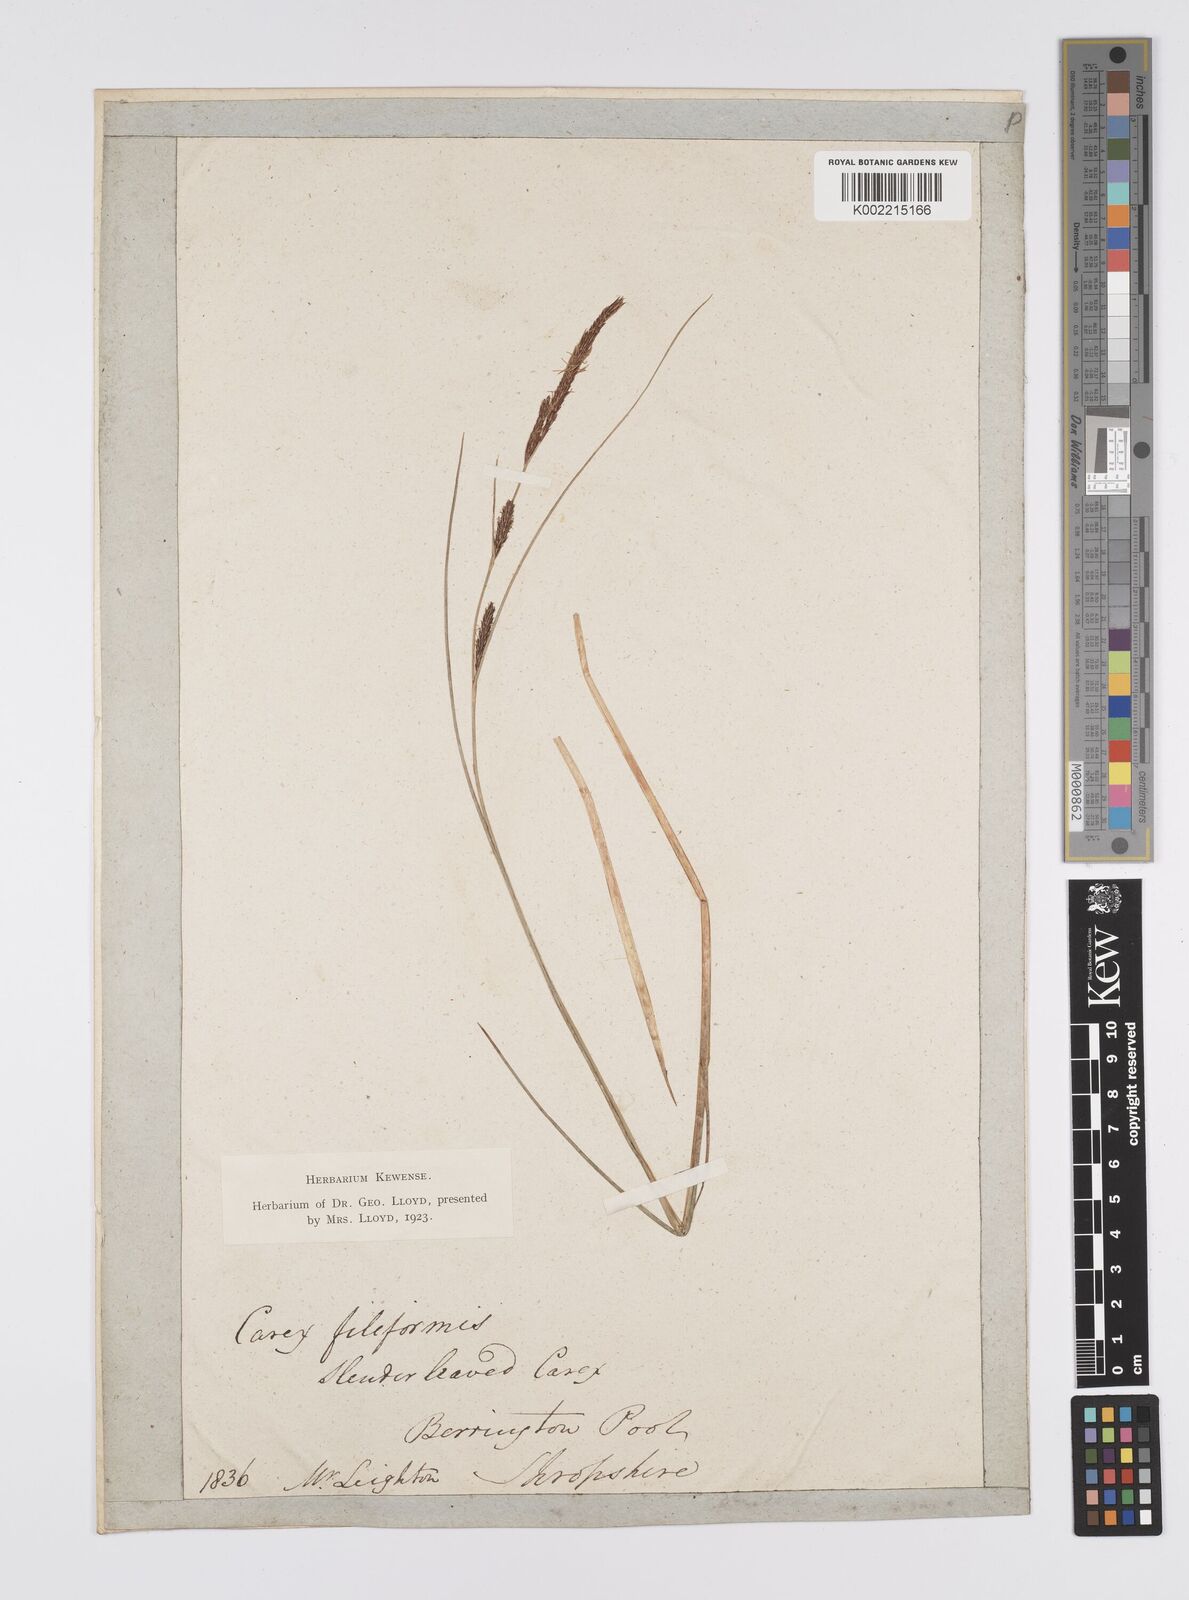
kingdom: Plantae
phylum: Tracheophyta
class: Liliopsida
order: Poales
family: Cyperaceae
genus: Carex
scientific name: Carex lasiocarpa
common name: Slender sedge
